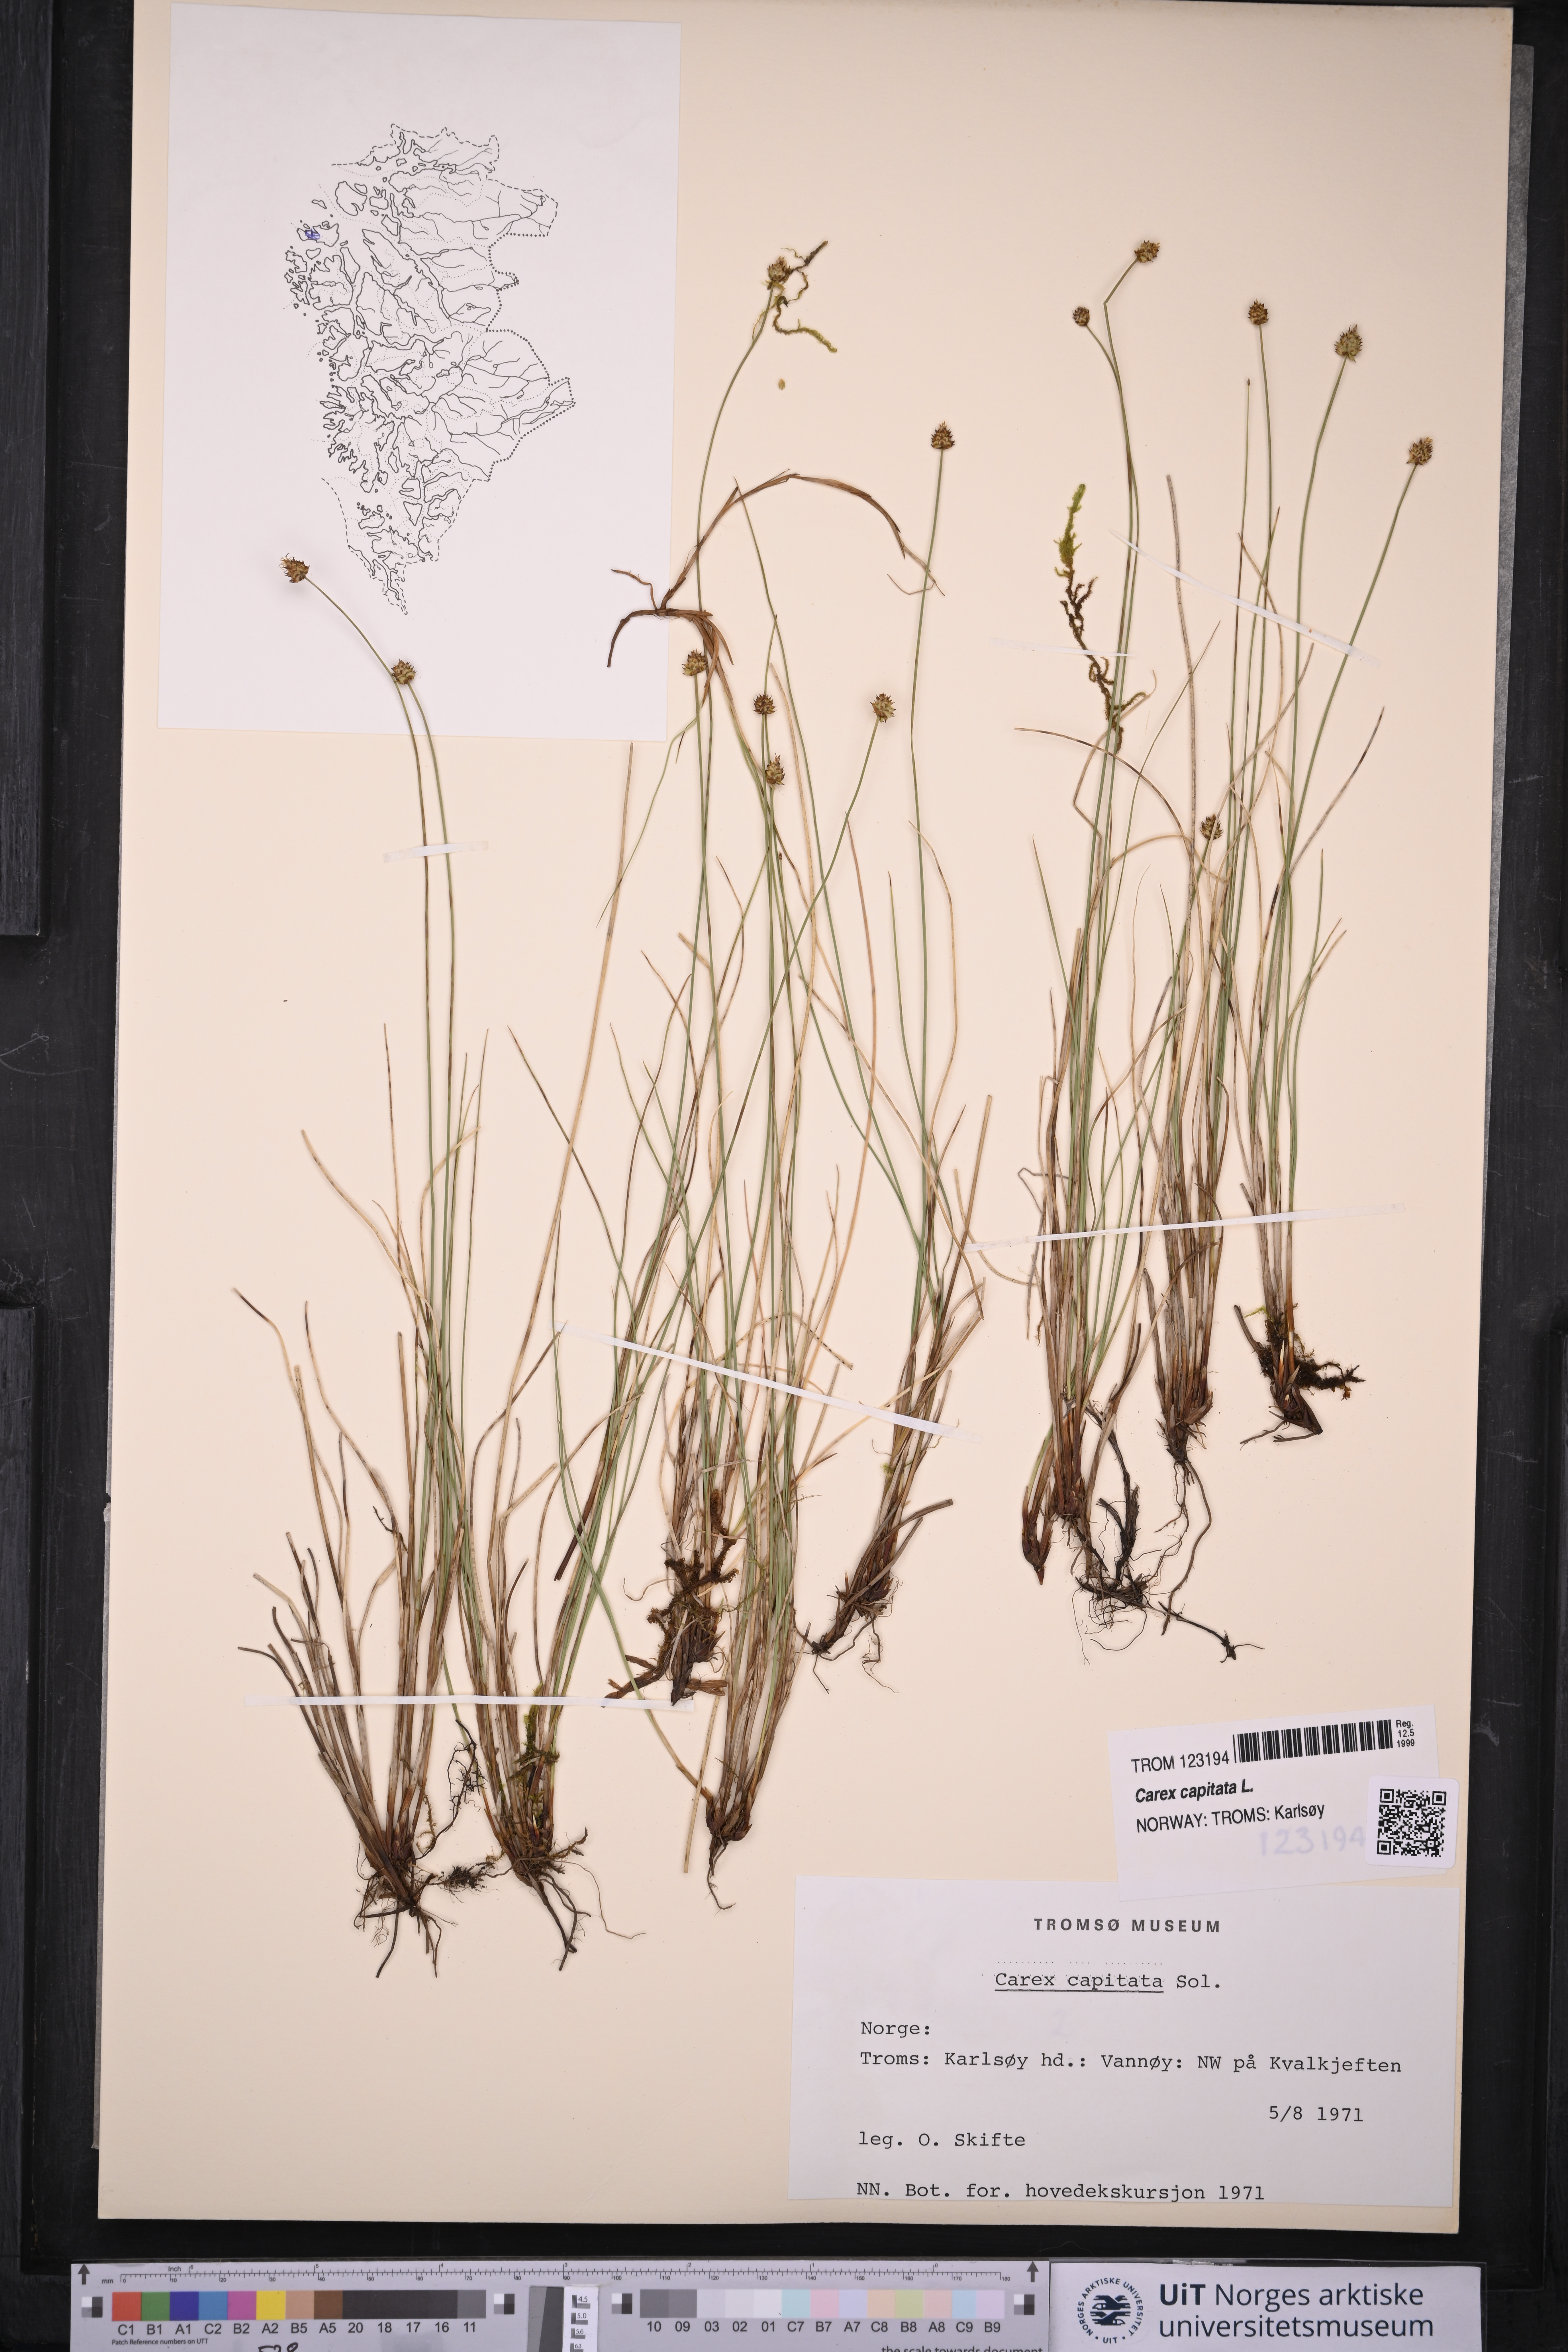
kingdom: Plantae
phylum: Tracheophyta
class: Liliopsida
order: Poales
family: Cyperaceae
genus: Carex
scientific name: Carex capitata
